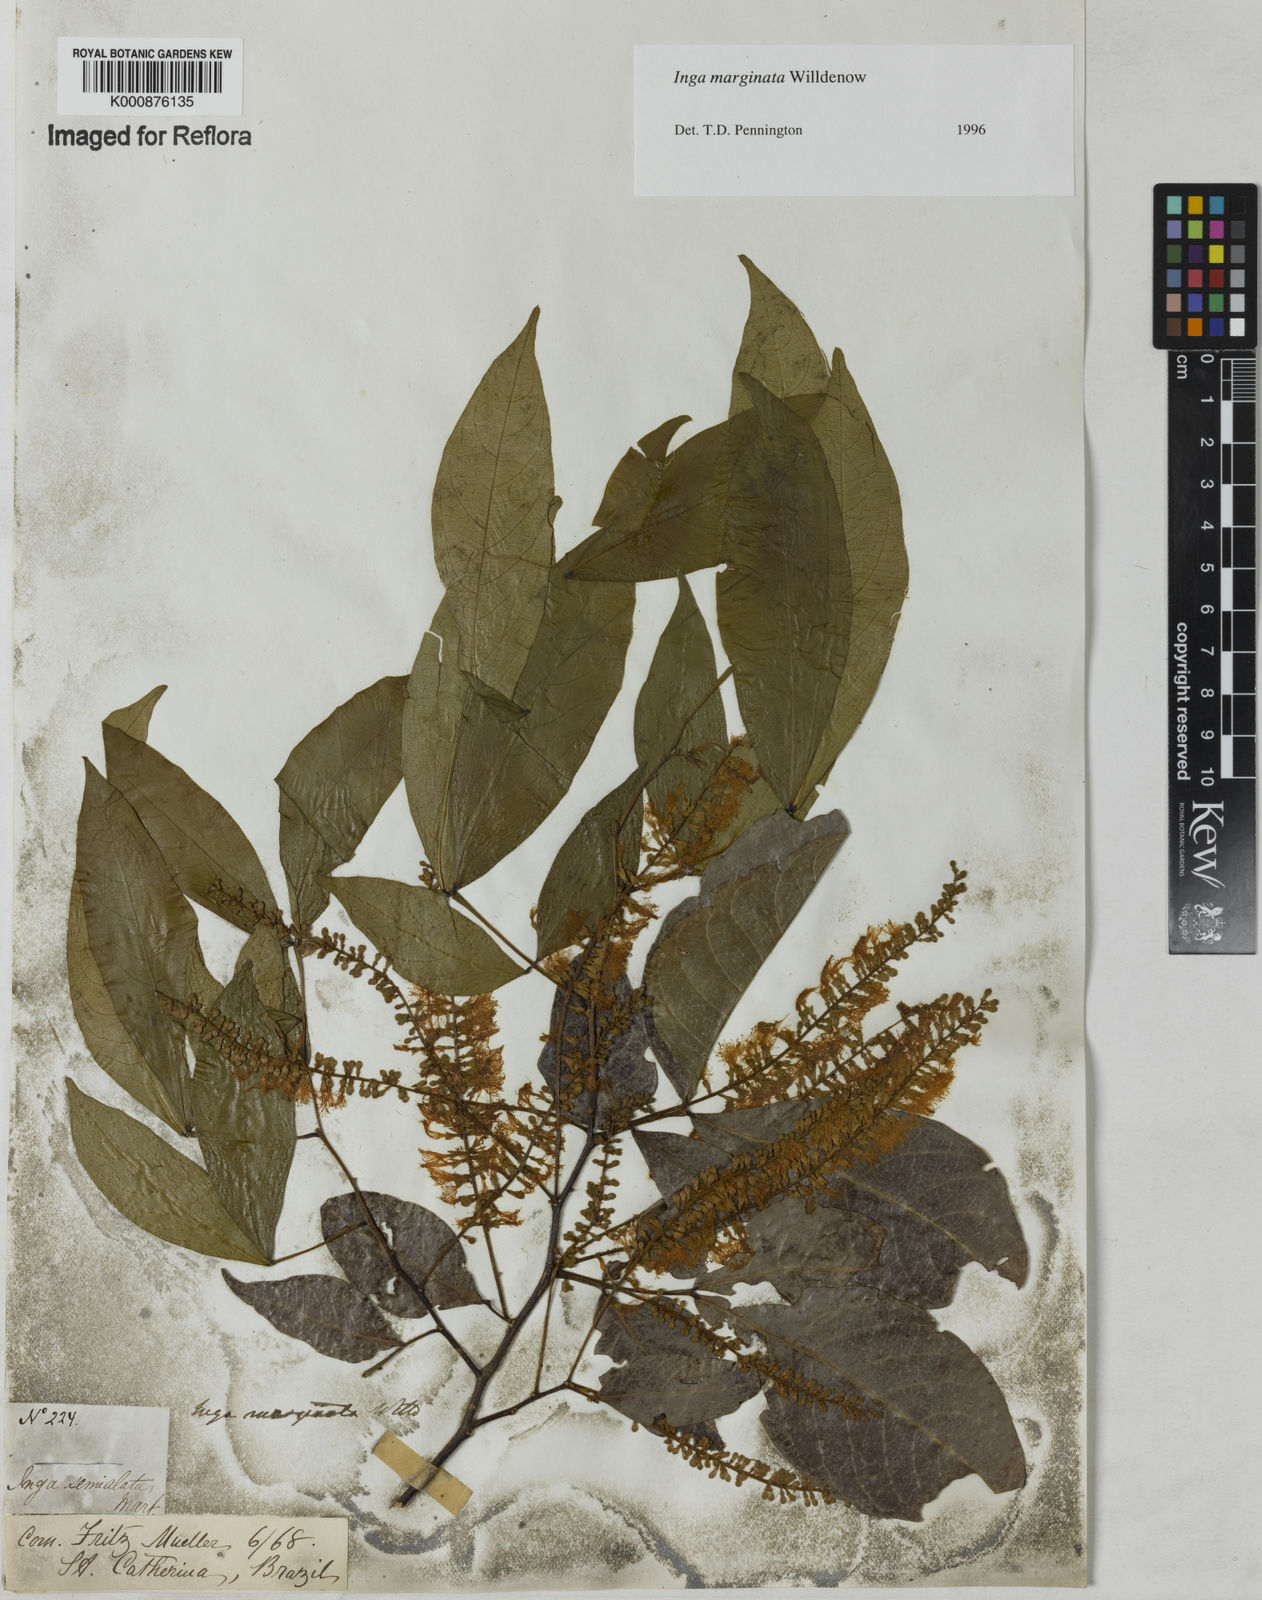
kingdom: Plantae
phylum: Tracheophyta
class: Magnoliopsida
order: Fabales
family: Fabaceae
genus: Inga
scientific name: Inga marginata
